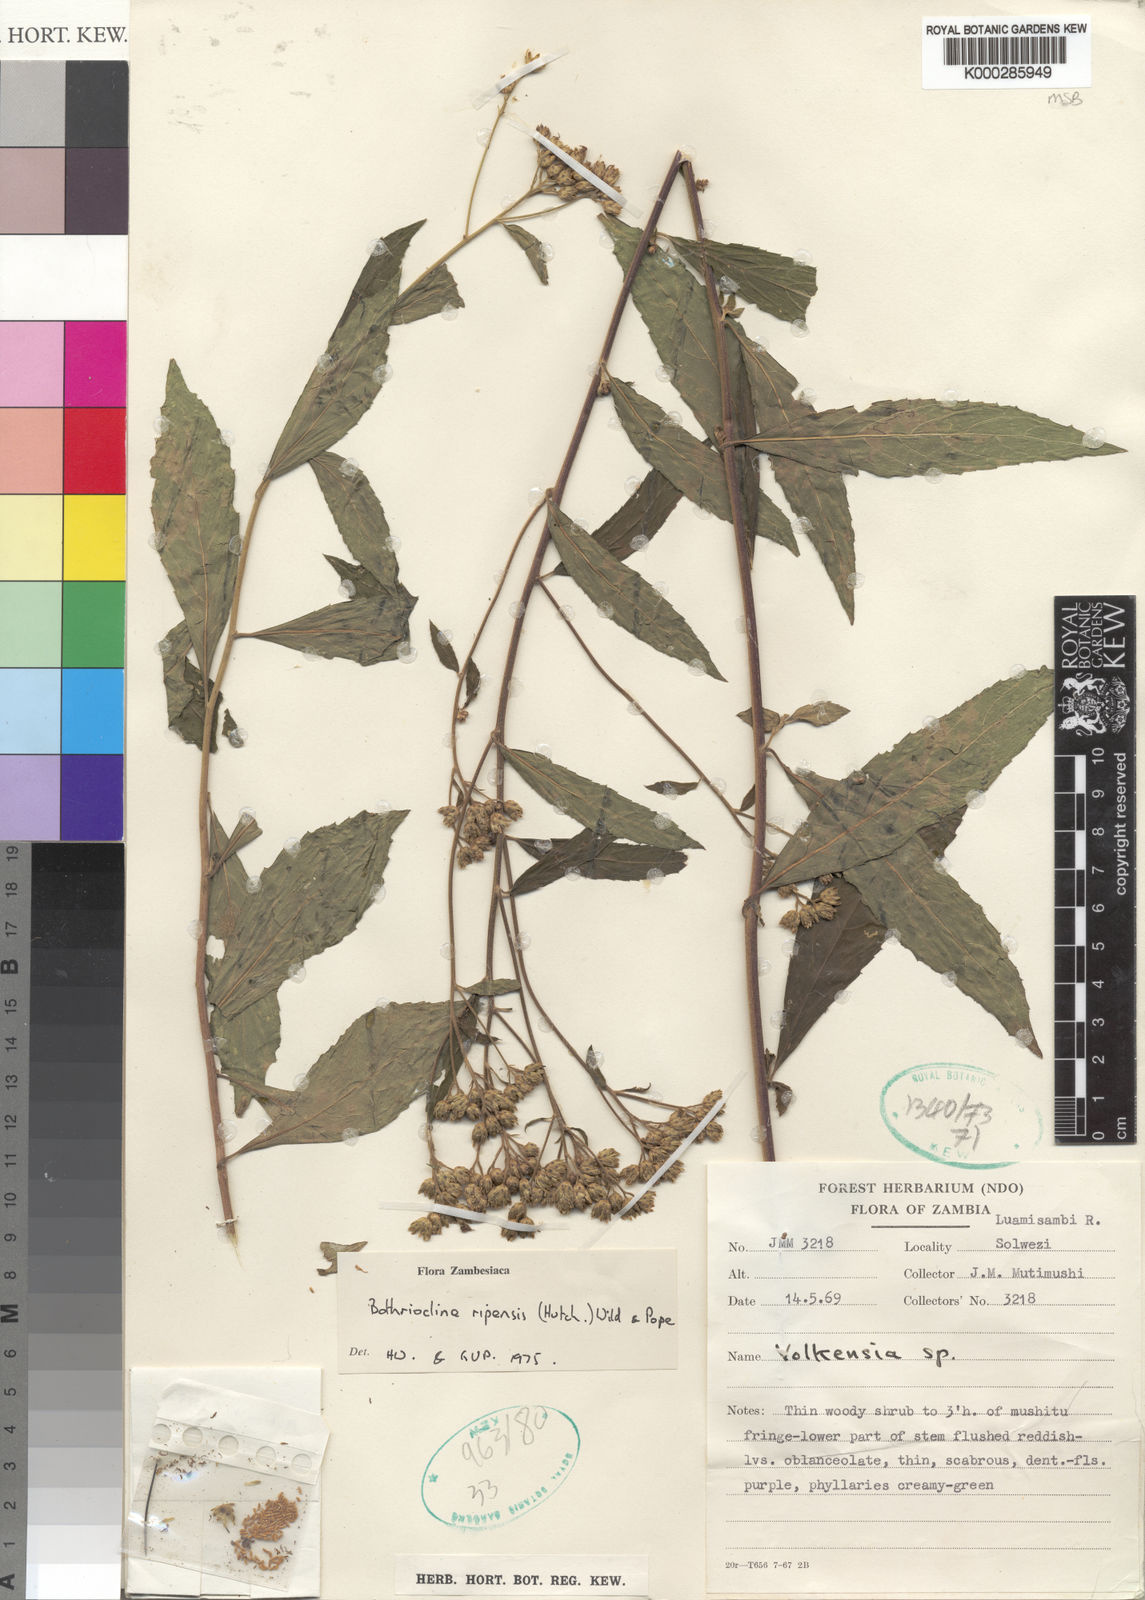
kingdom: Plantae
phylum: Tracheophyta
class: Magnoliopsida
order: Asterales
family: Asteraceae
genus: Bothriocline
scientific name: Bothriocline ripensis
